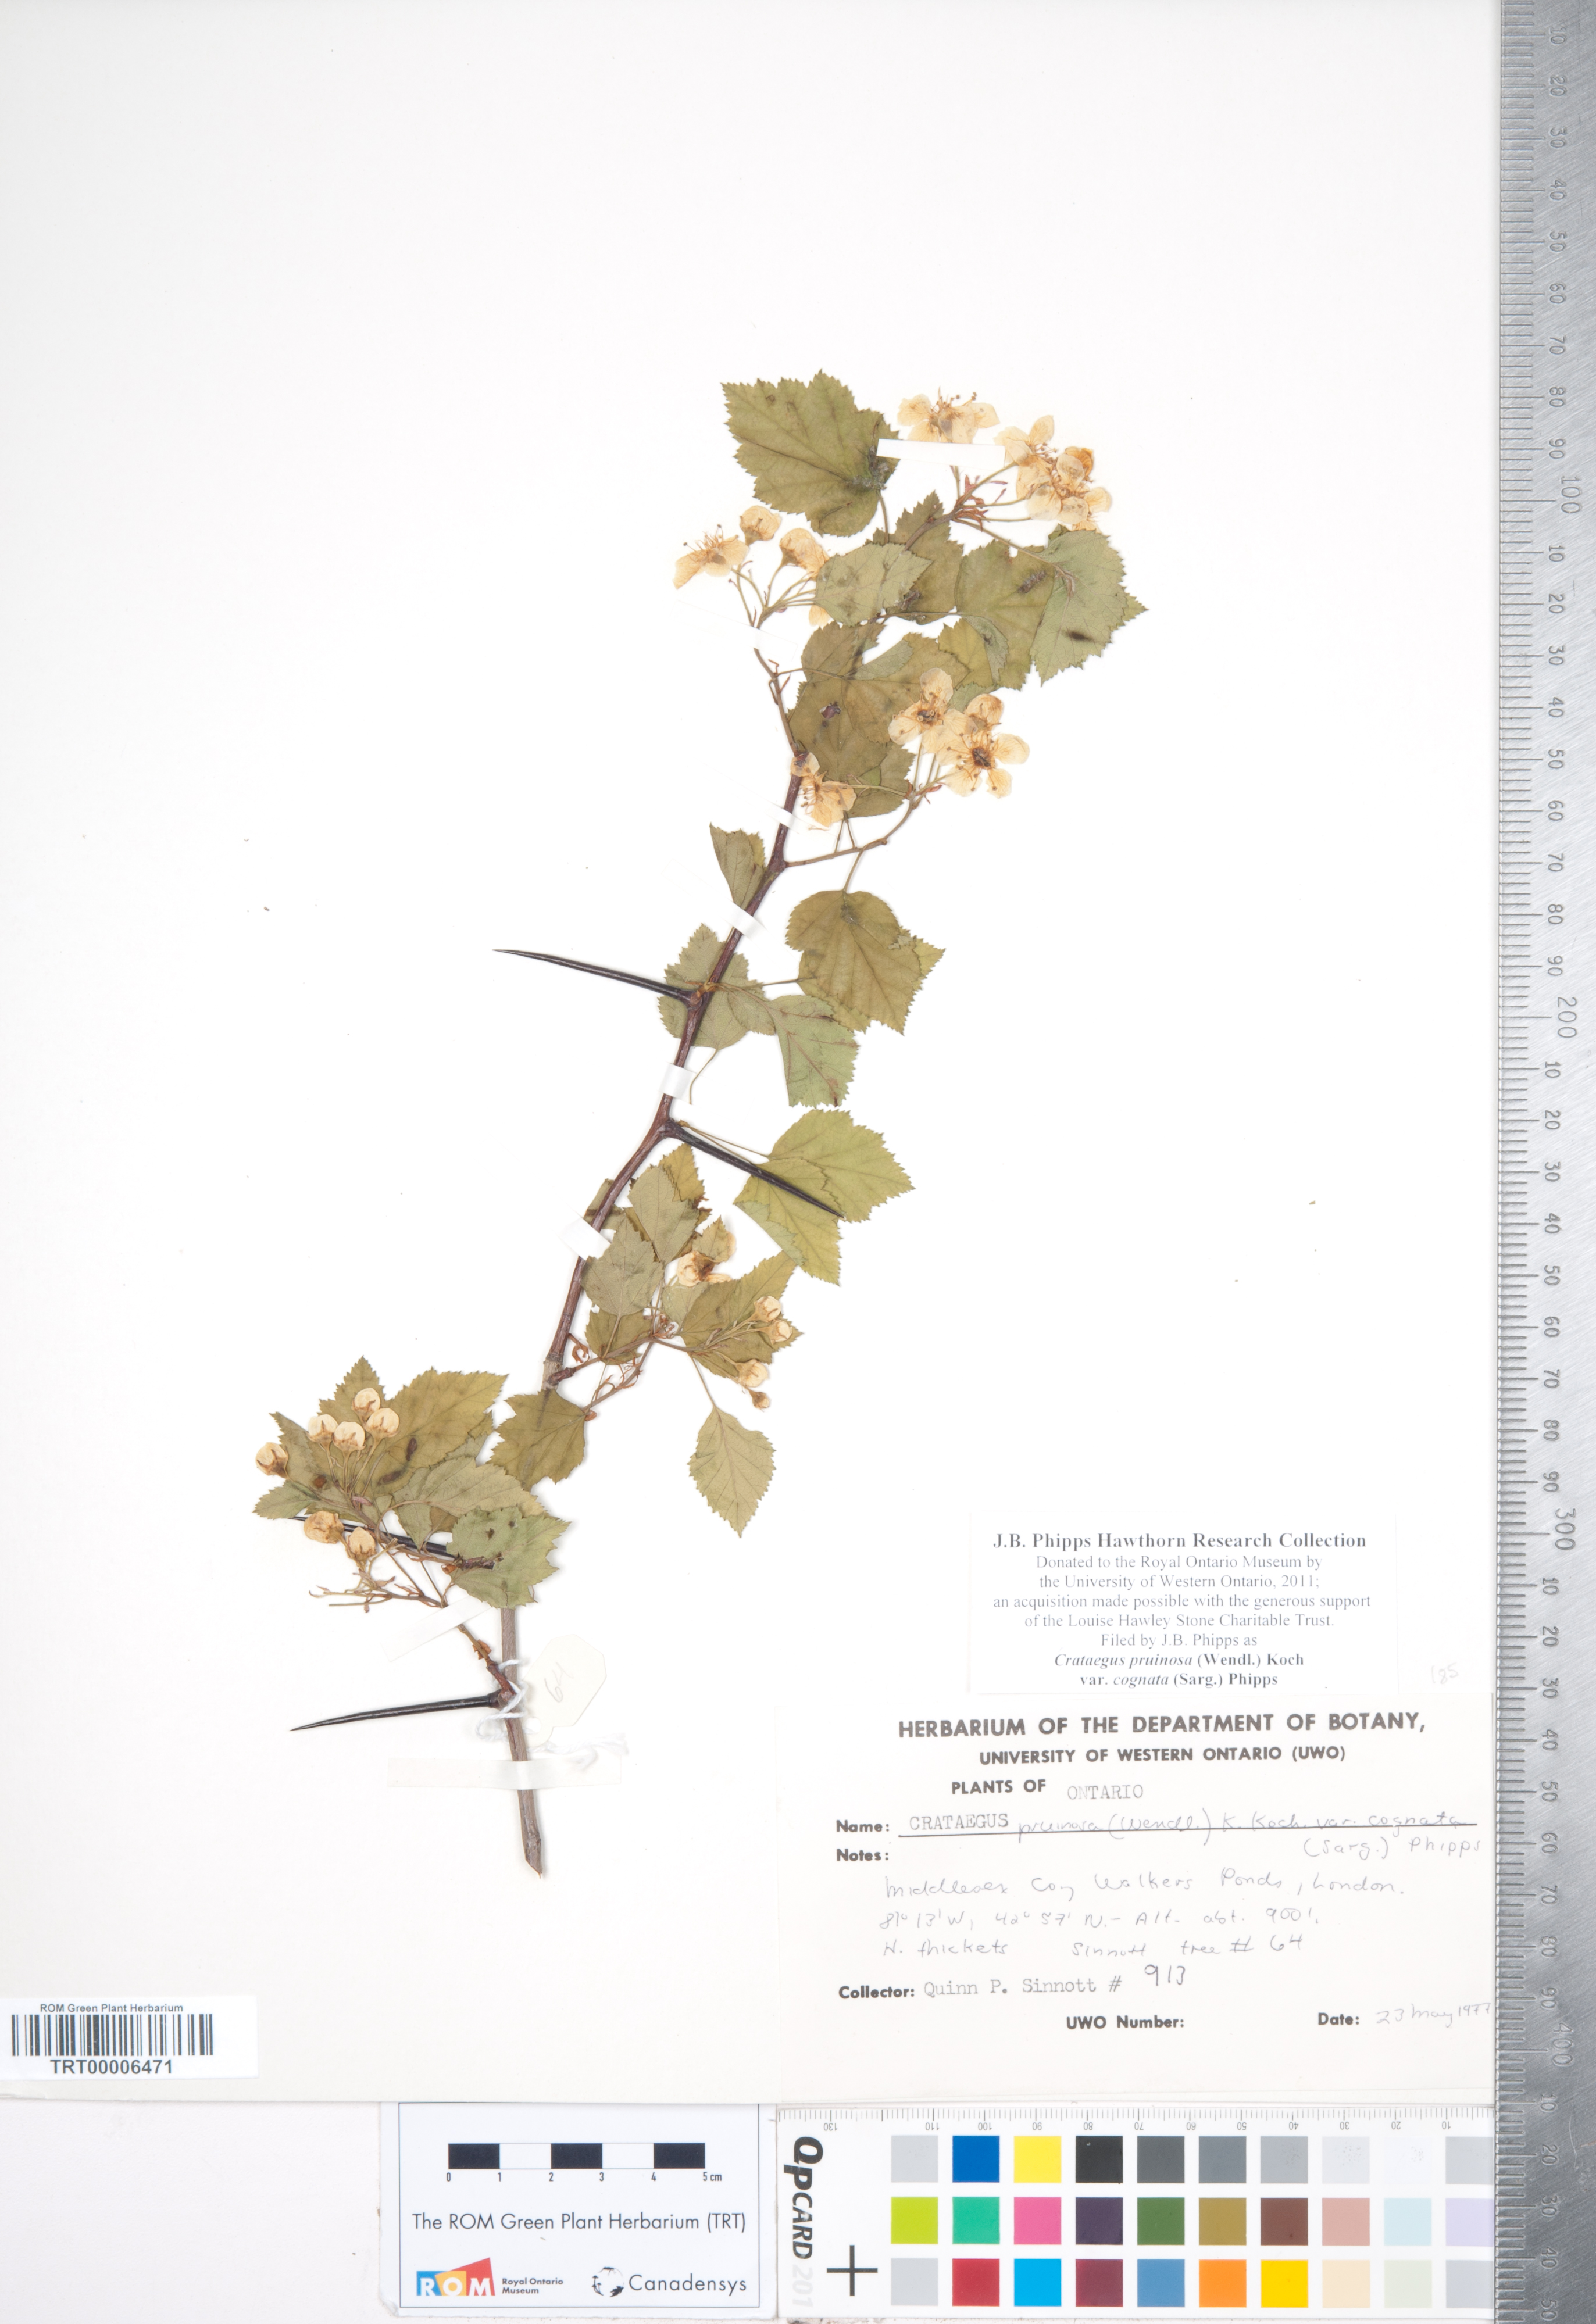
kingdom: Plantae
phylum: Tracheophyta
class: Magnoliopsida
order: Rosales
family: Rosaceae
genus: Crataegus
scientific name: Crataegus
